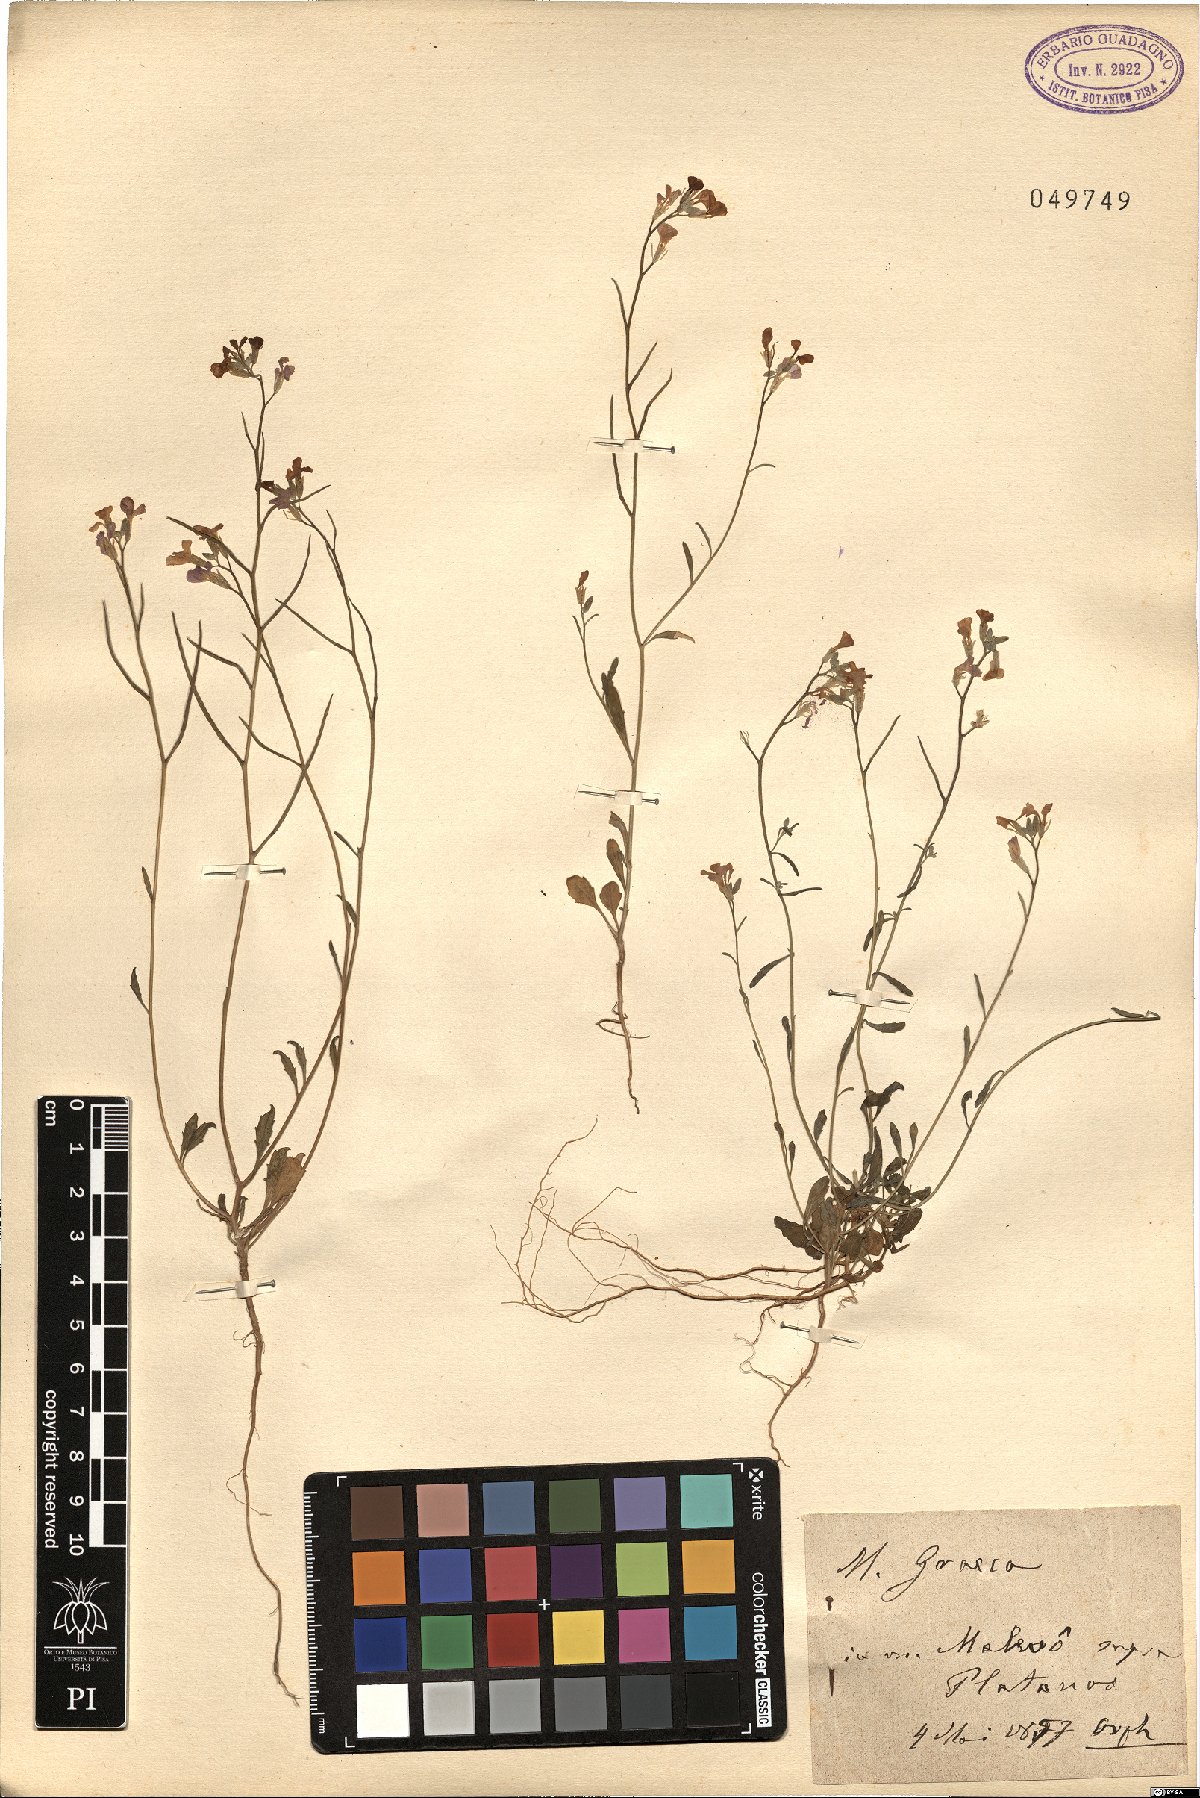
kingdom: Plantae
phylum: Tracheophyta
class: Magnoliopsida
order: Brassicales
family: Brassicaceae
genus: Malcolmia
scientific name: Malcolmia graeca
